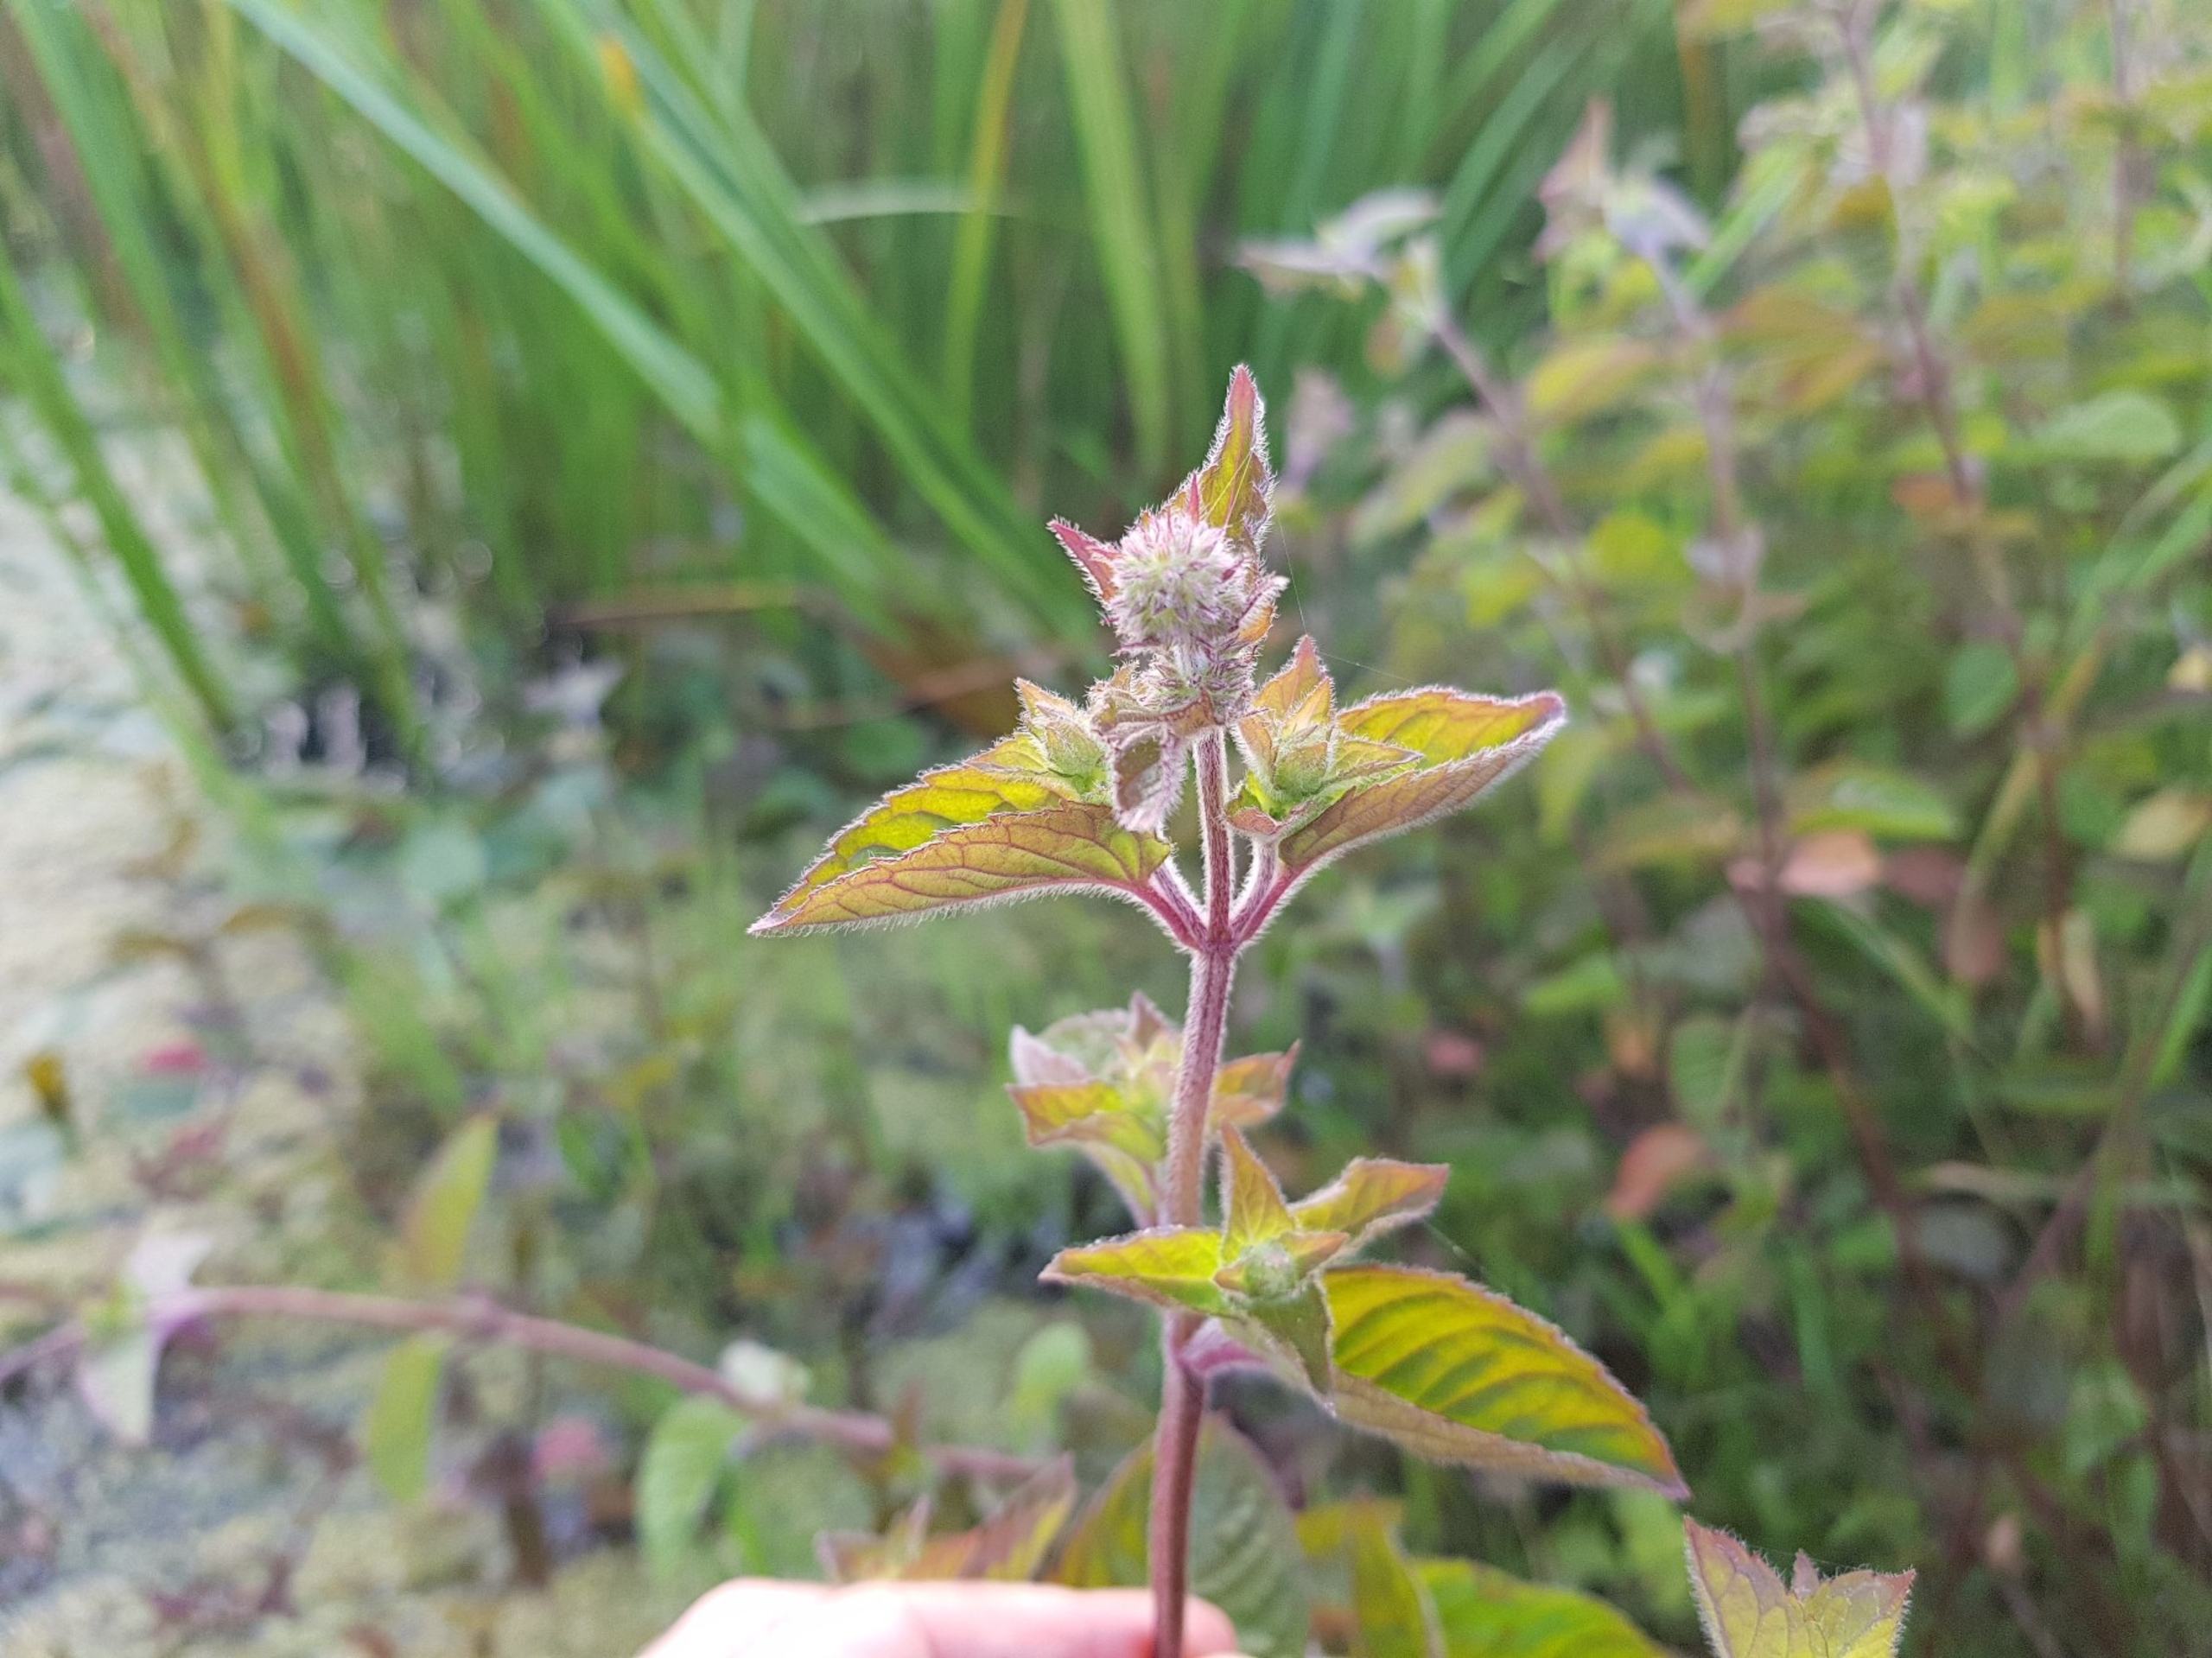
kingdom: Plantae
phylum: Tracheophyta
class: Magnoliopsida
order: Lamiales
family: Lamiaceae
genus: Mentha
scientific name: Mentha aquatica
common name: Vand-mynte
